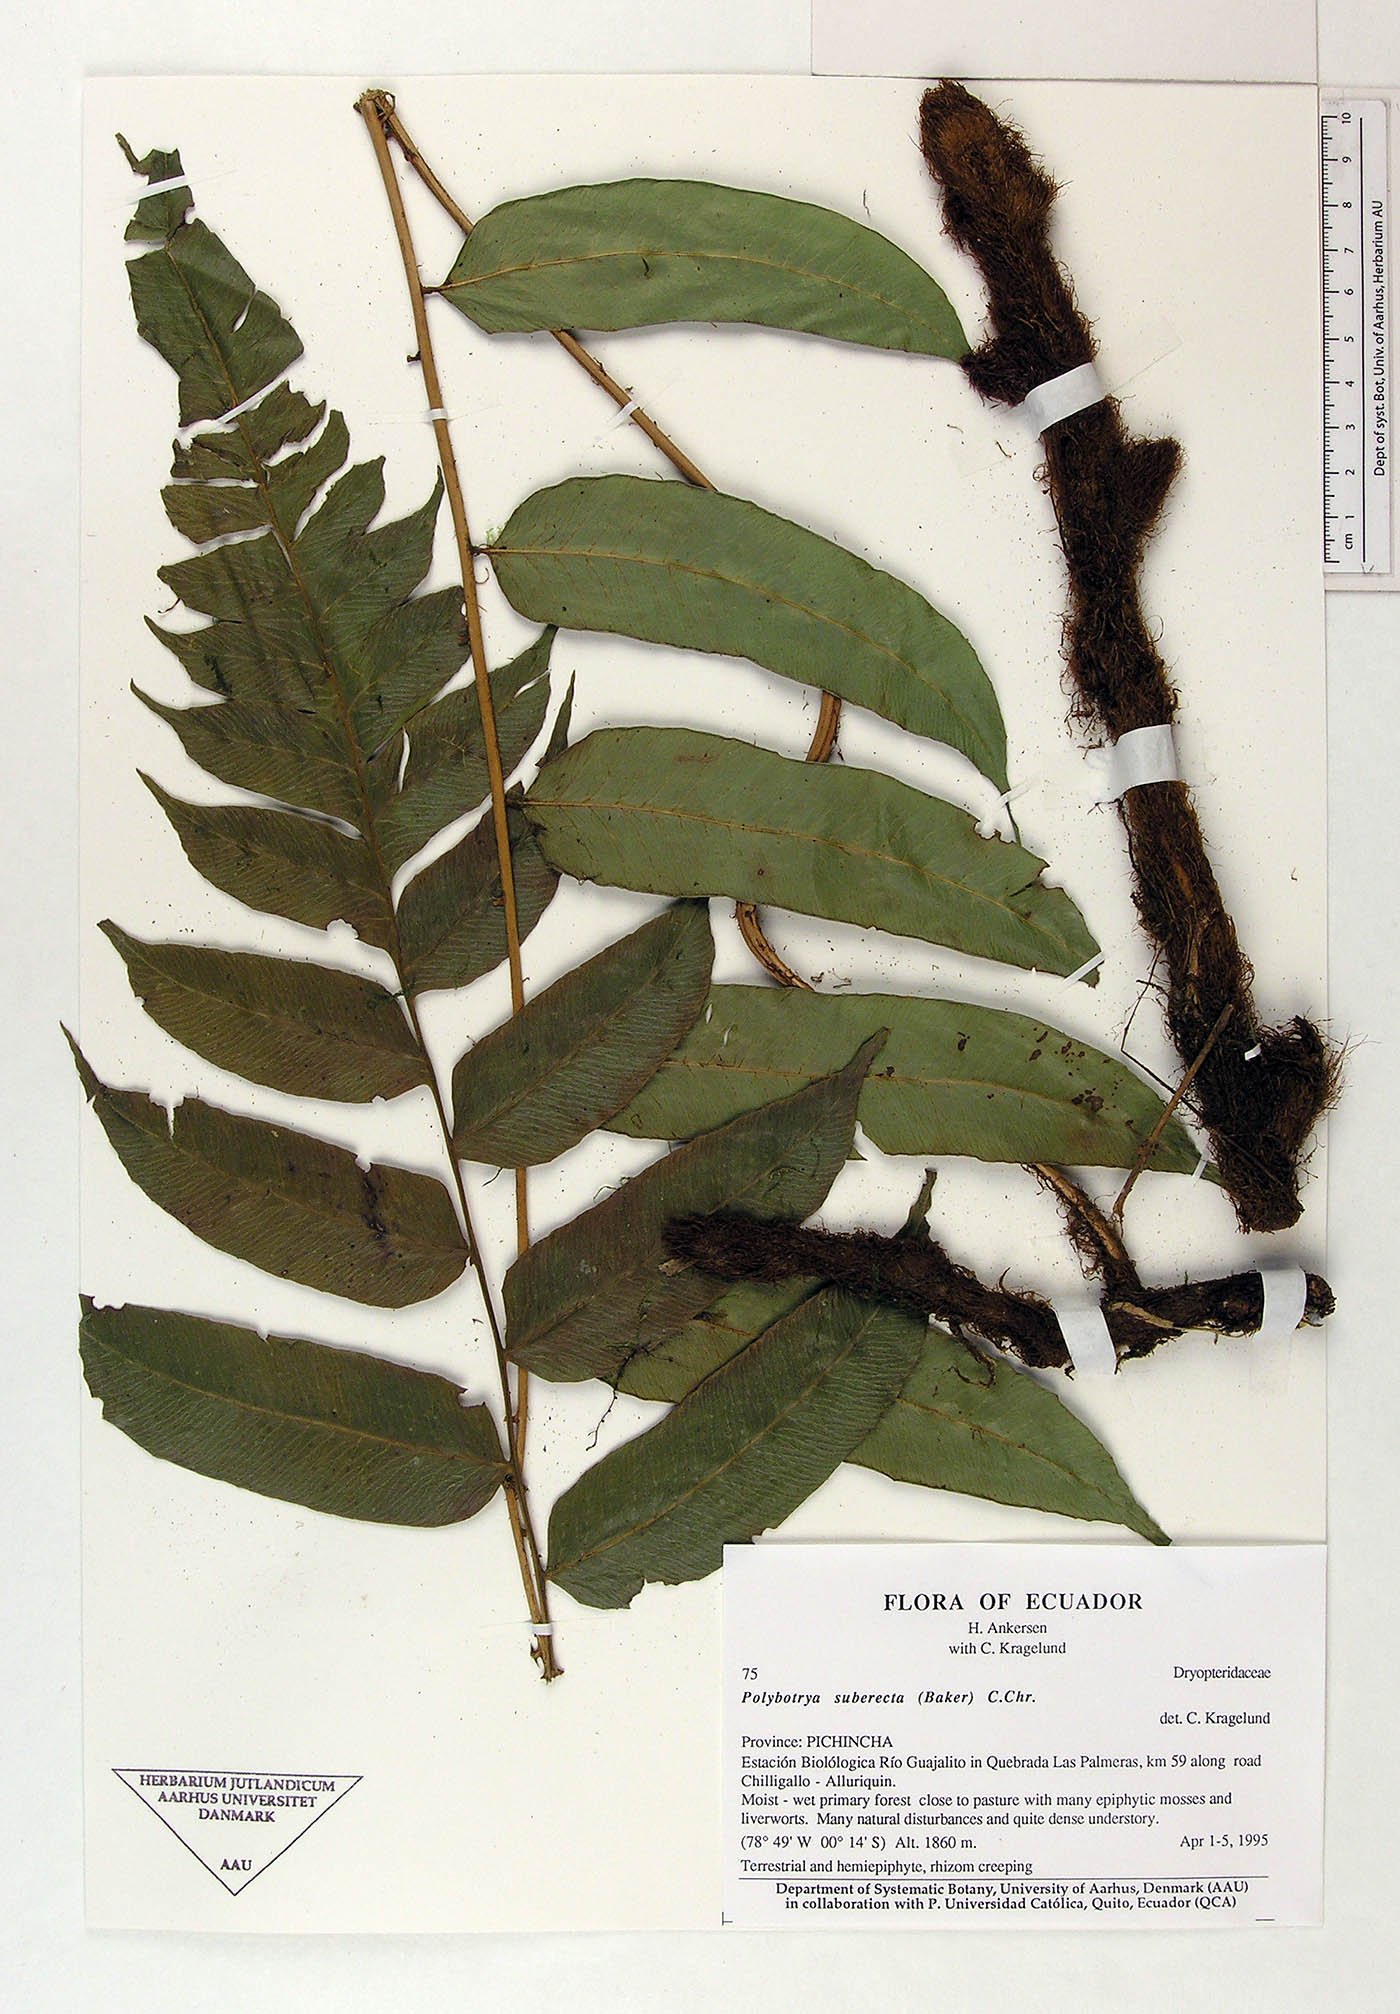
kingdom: Plantae
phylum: Tracheophyta
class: Polypodiopsida
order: Polypodiales
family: Dryopteridaceae
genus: Polybotrya
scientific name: Polybotrya suberecta
